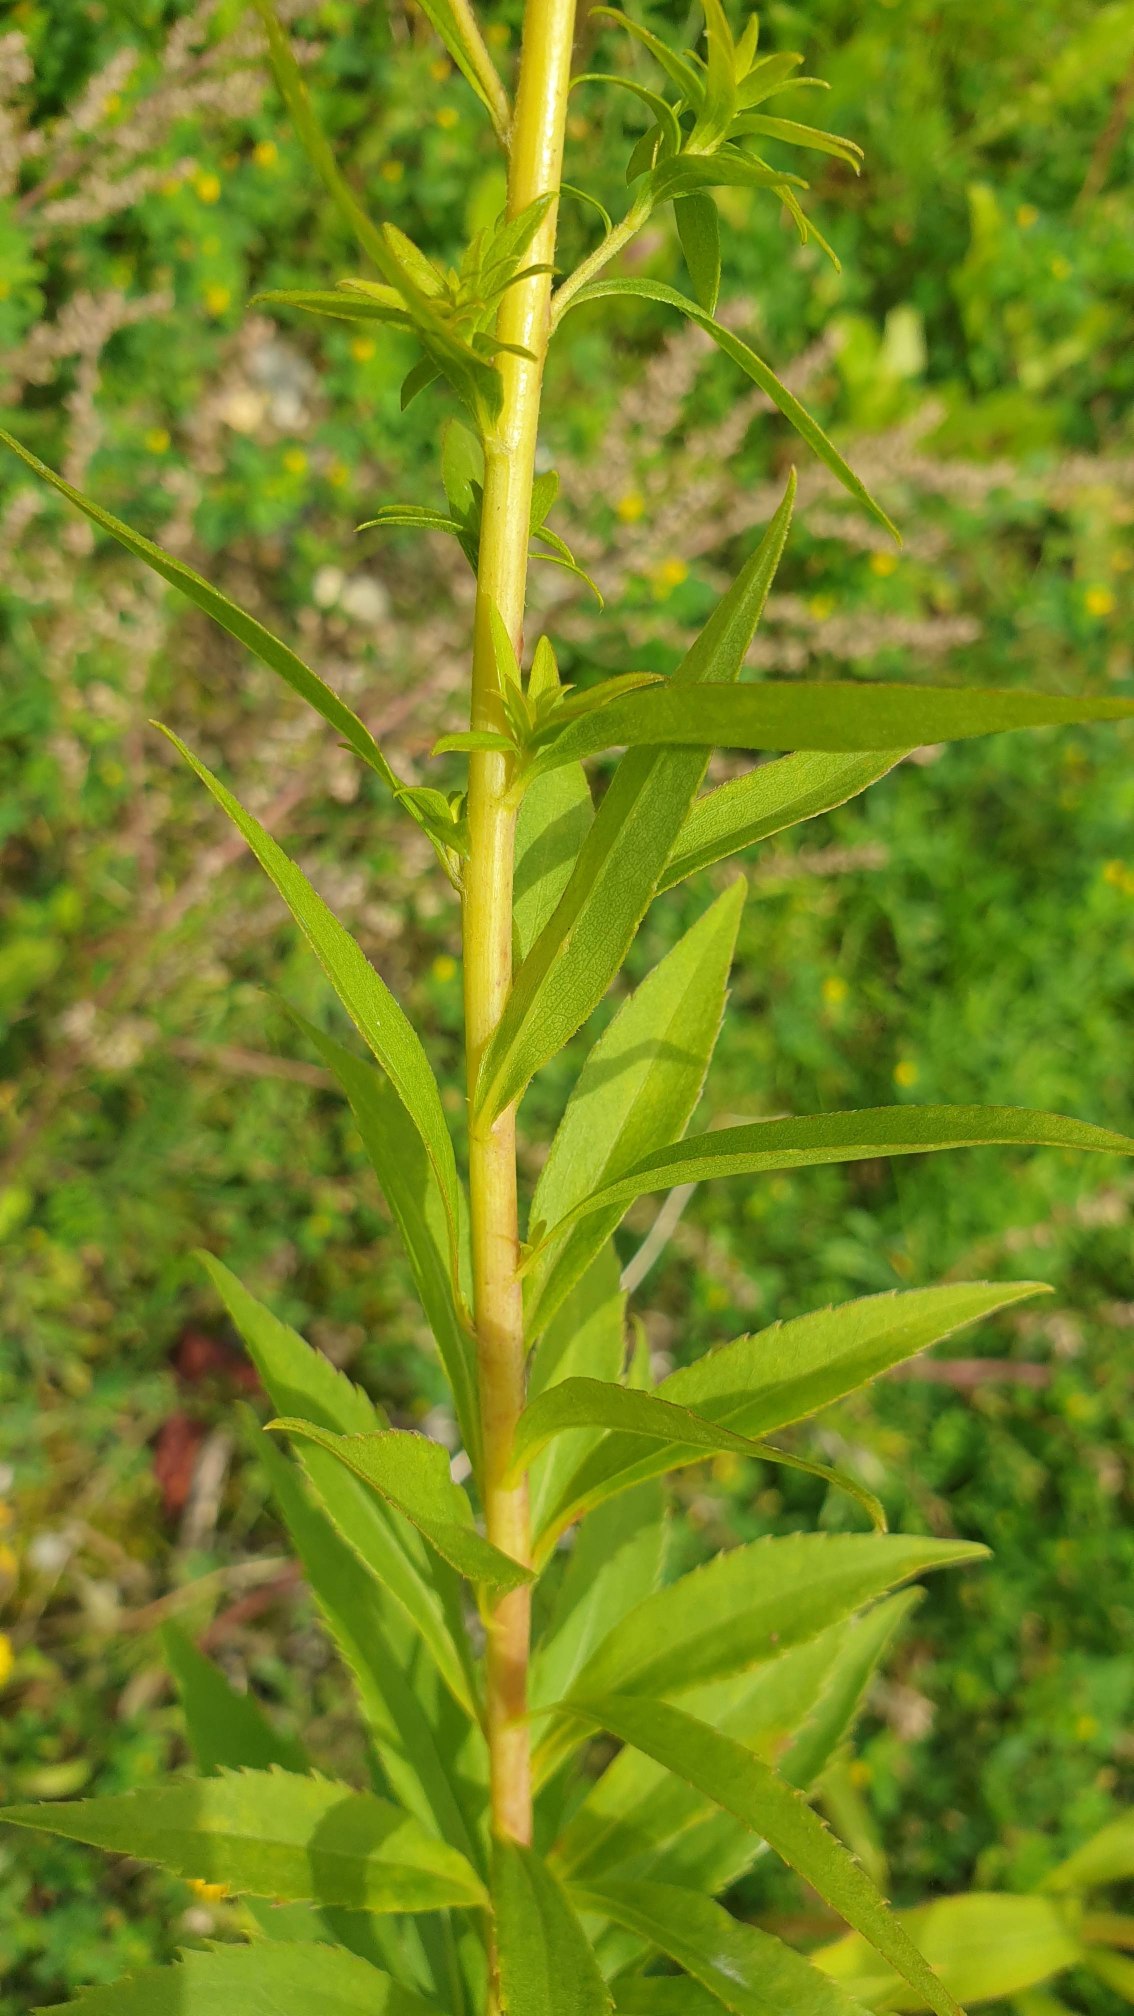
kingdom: Plantae
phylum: Tracheophyta
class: Magnoliopsida
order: Asterales
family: Asteraceae
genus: Solidago
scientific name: Solidago gigantea
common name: Sildig gyldenris
